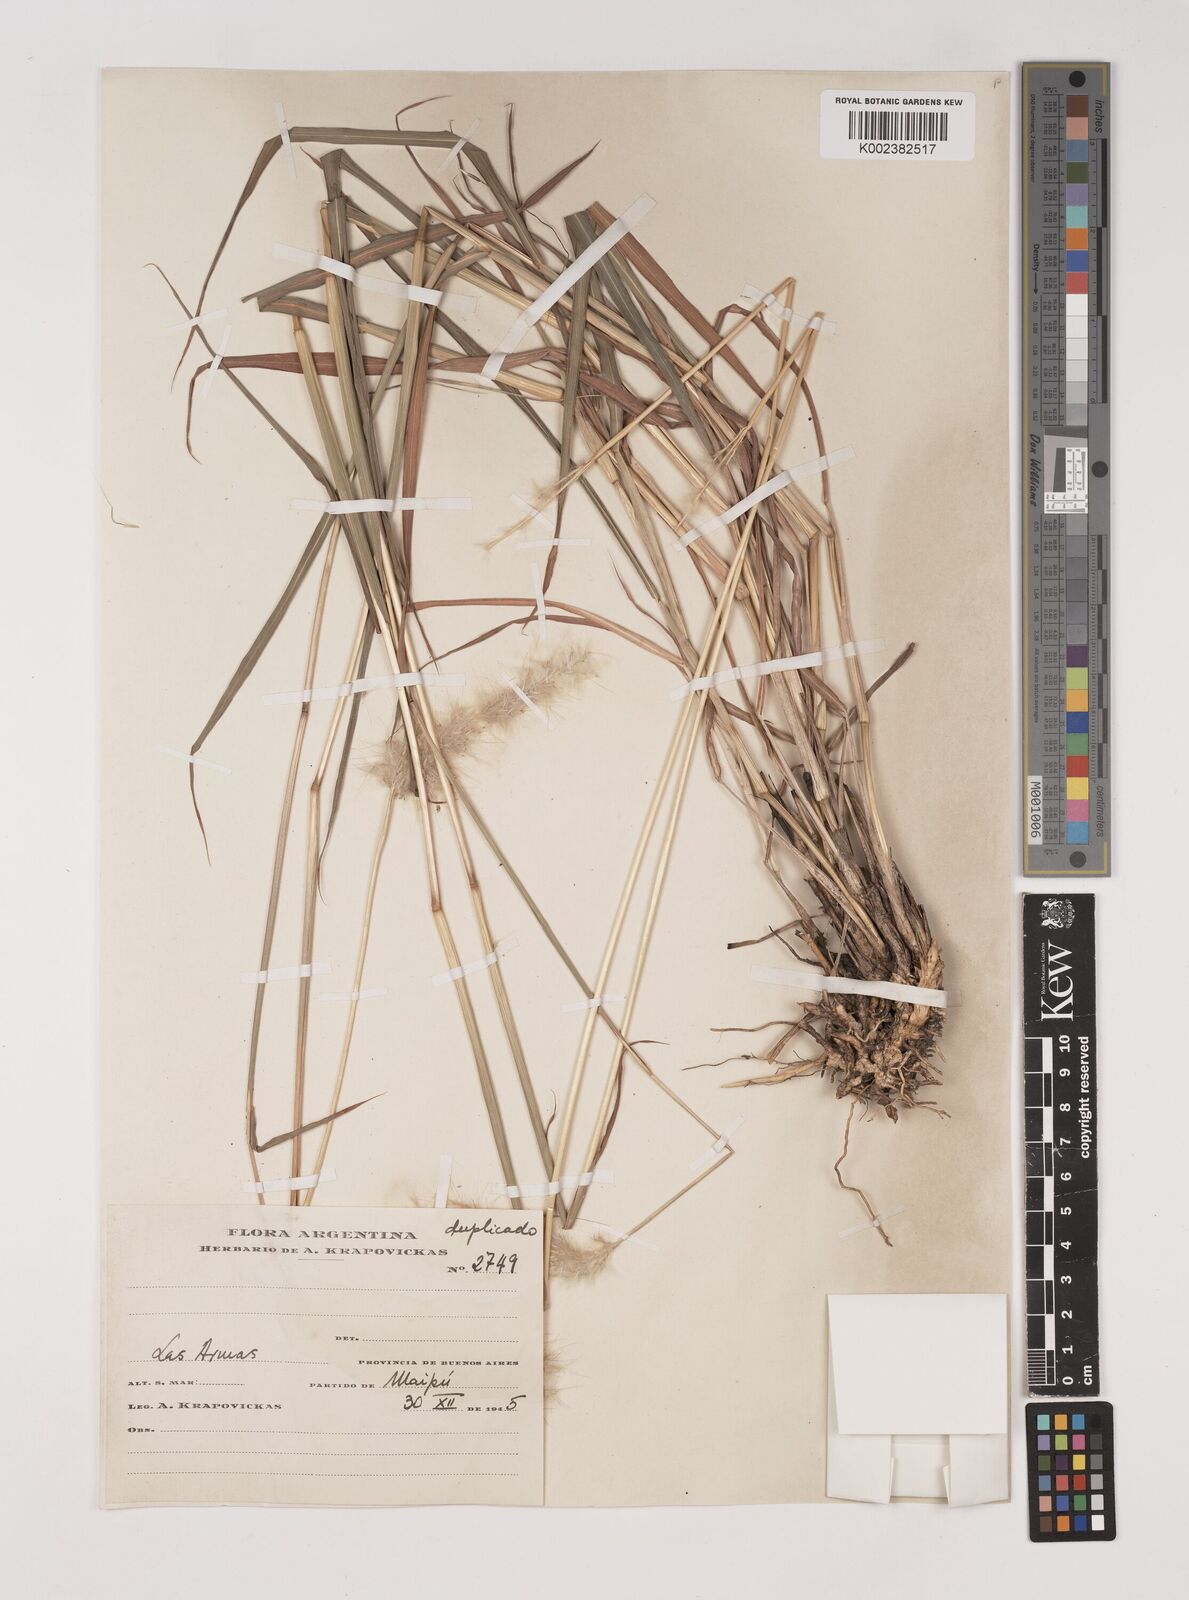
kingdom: Plantae
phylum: Tracheophyta
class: Liliopsida
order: Poales
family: Poaceae
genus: Bothriochloa
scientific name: Bothriochloa laguroides
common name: Silver bluestem
